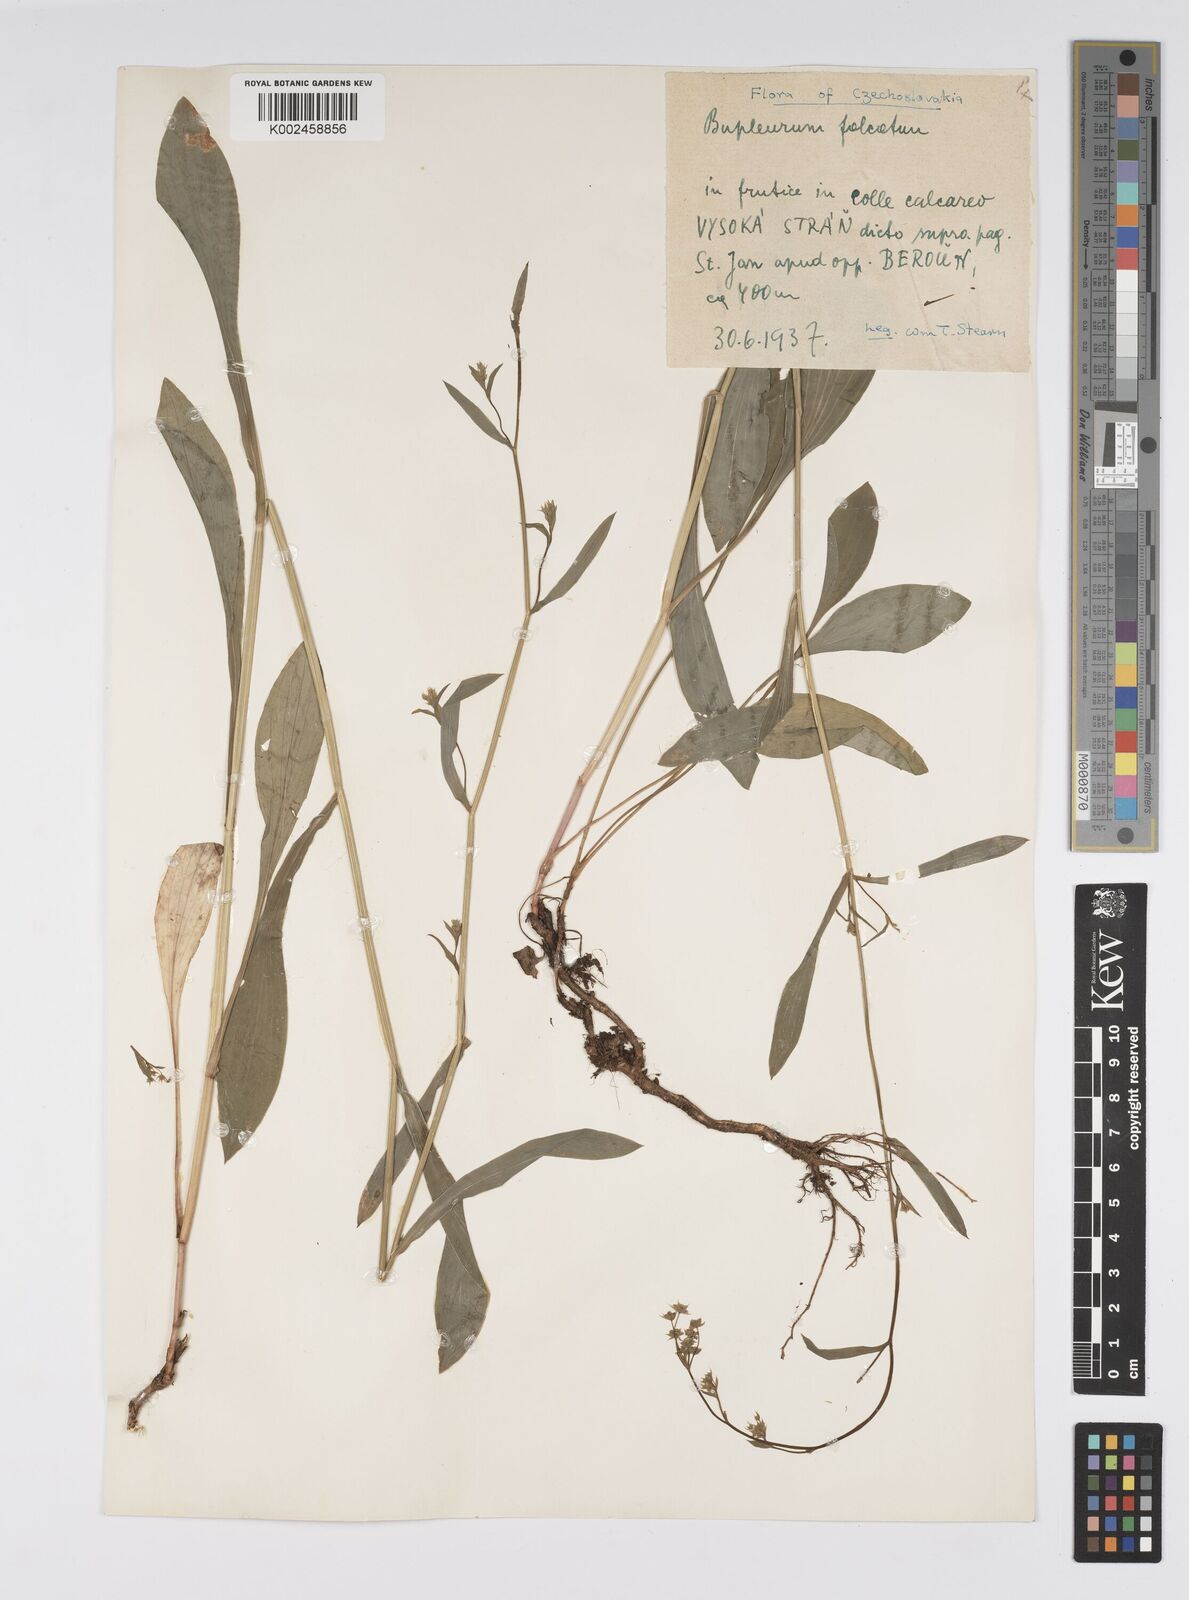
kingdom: Plantae
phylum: Tracheophyta
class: Magnoliopsida
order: Apiales
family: Apiaceae
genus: Bupleurum
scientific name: Bupleurum falcatum
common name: Sickle-leaved hare's-ear
